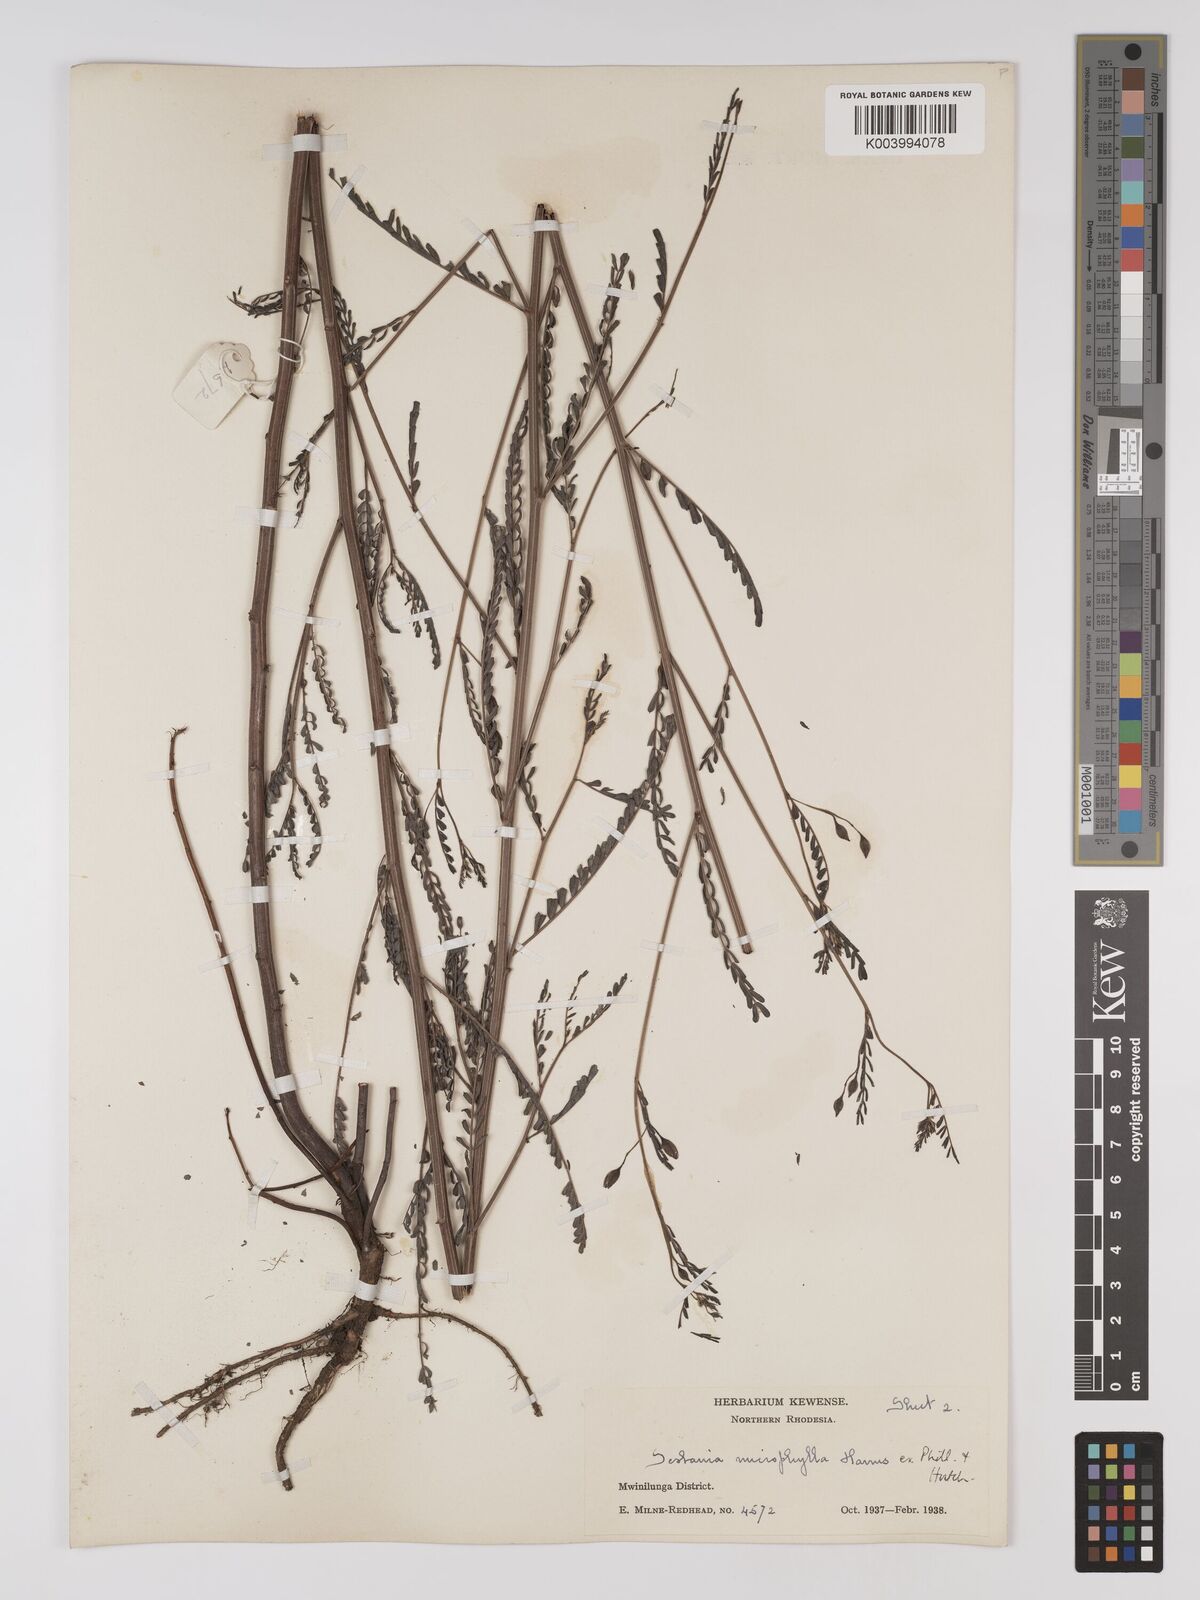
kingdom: Plantae
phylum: Tracheophyta
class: Magnoliopsida
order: Fabales
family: Fabaceae
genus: Sesbania
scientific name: Sesbania microphylla
